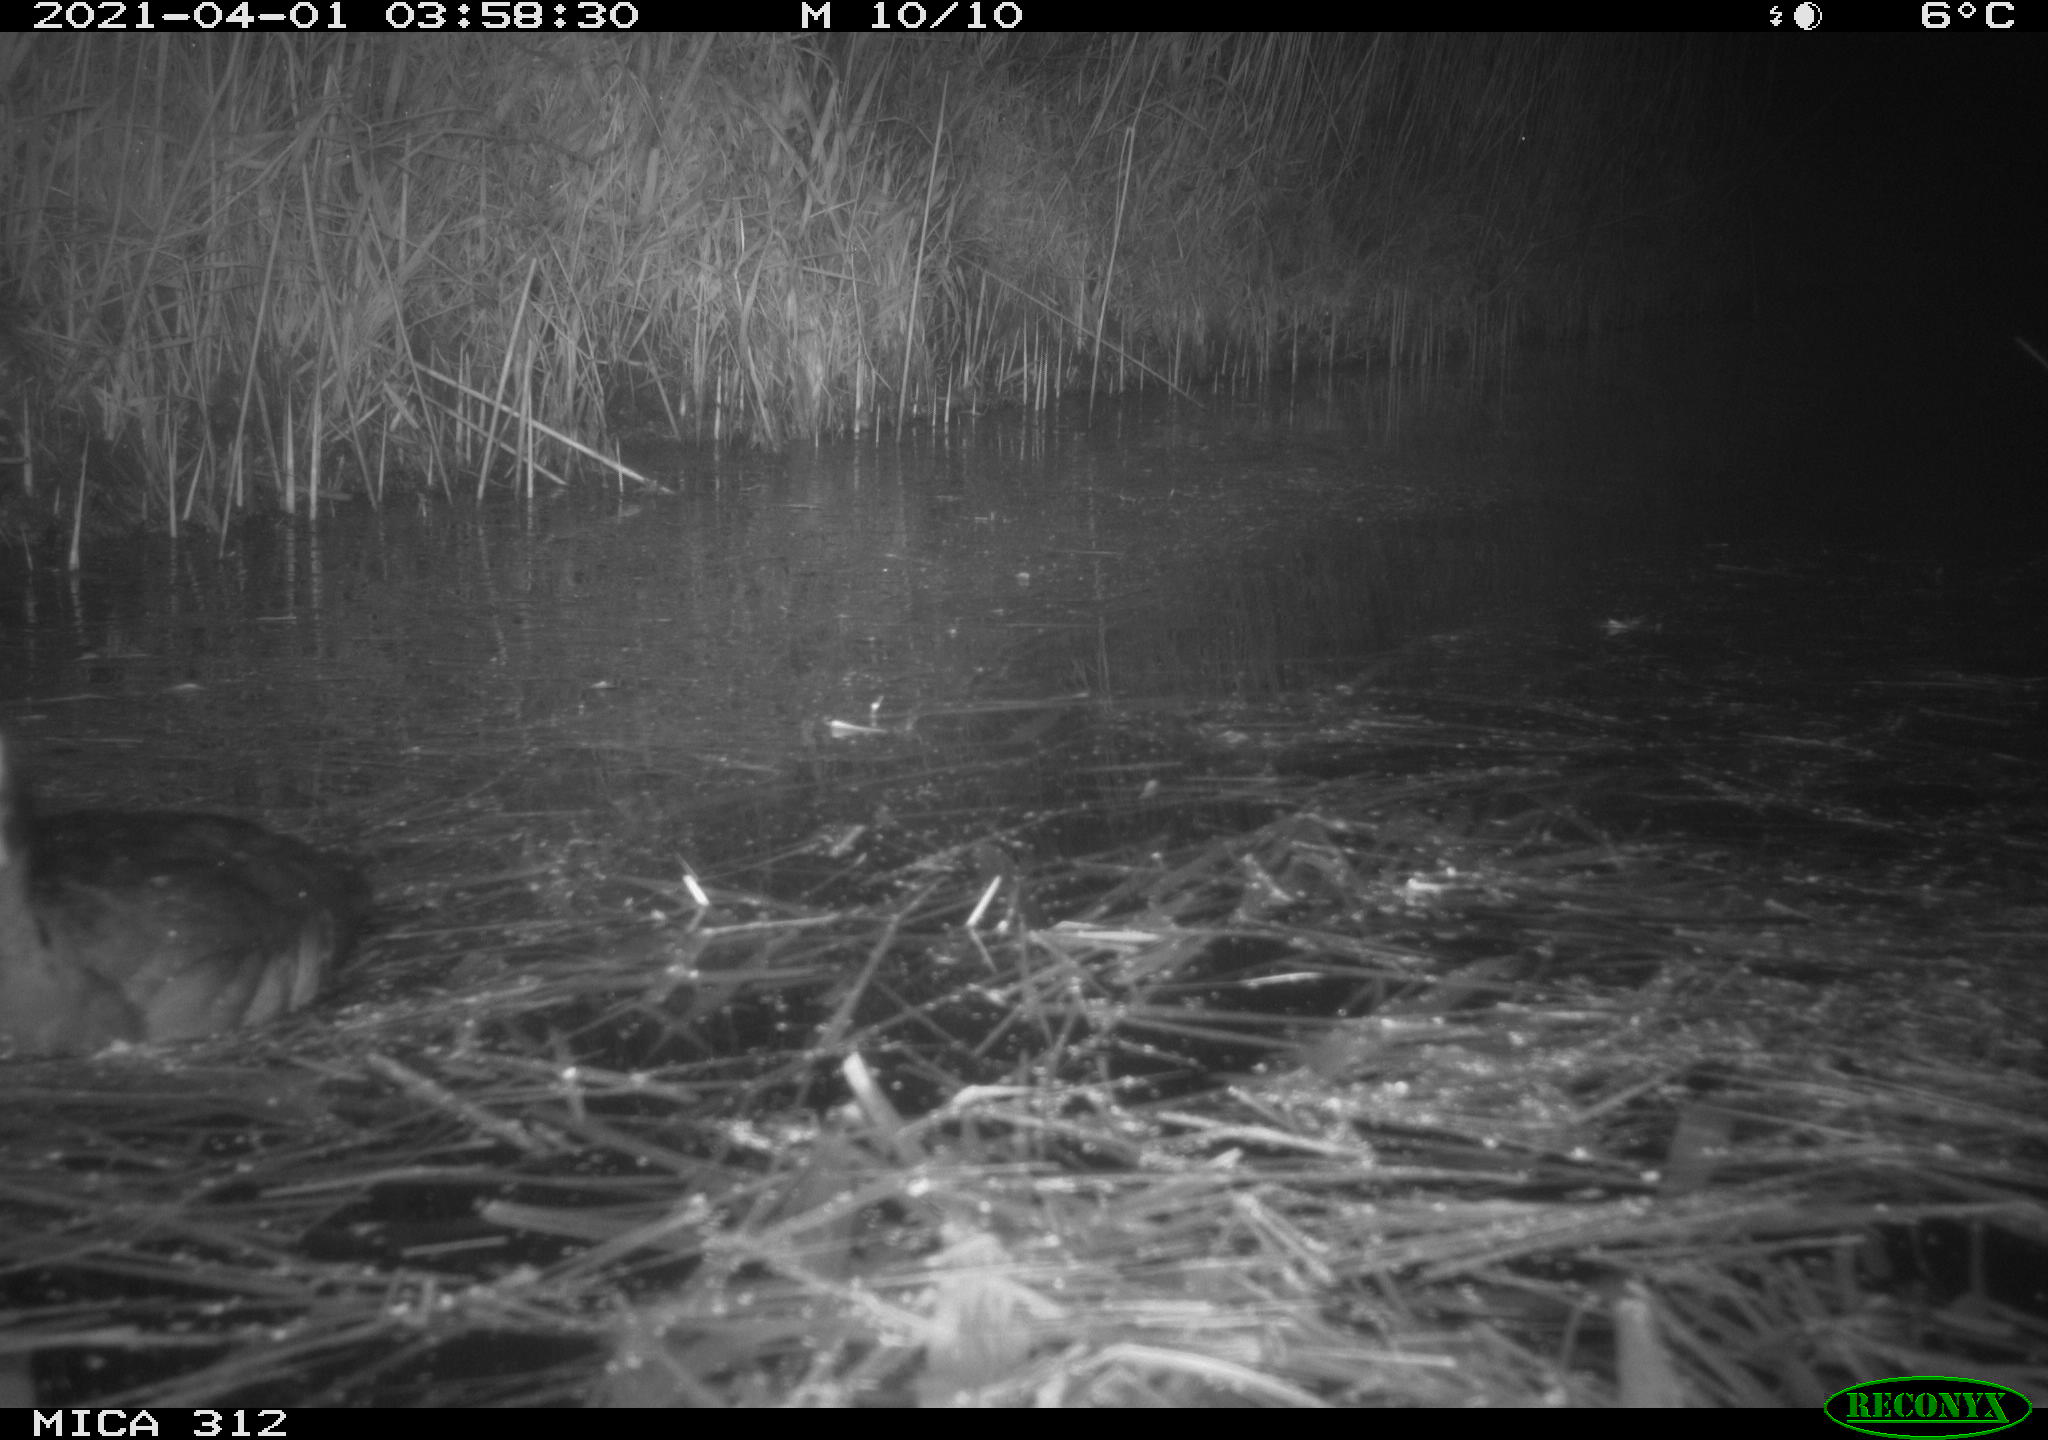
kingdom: Animalia
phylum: Chordata
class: Aves
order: Gruiformes
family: Rallidae
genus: Fulica
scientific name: Fulica atra
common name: Eurasian coot
